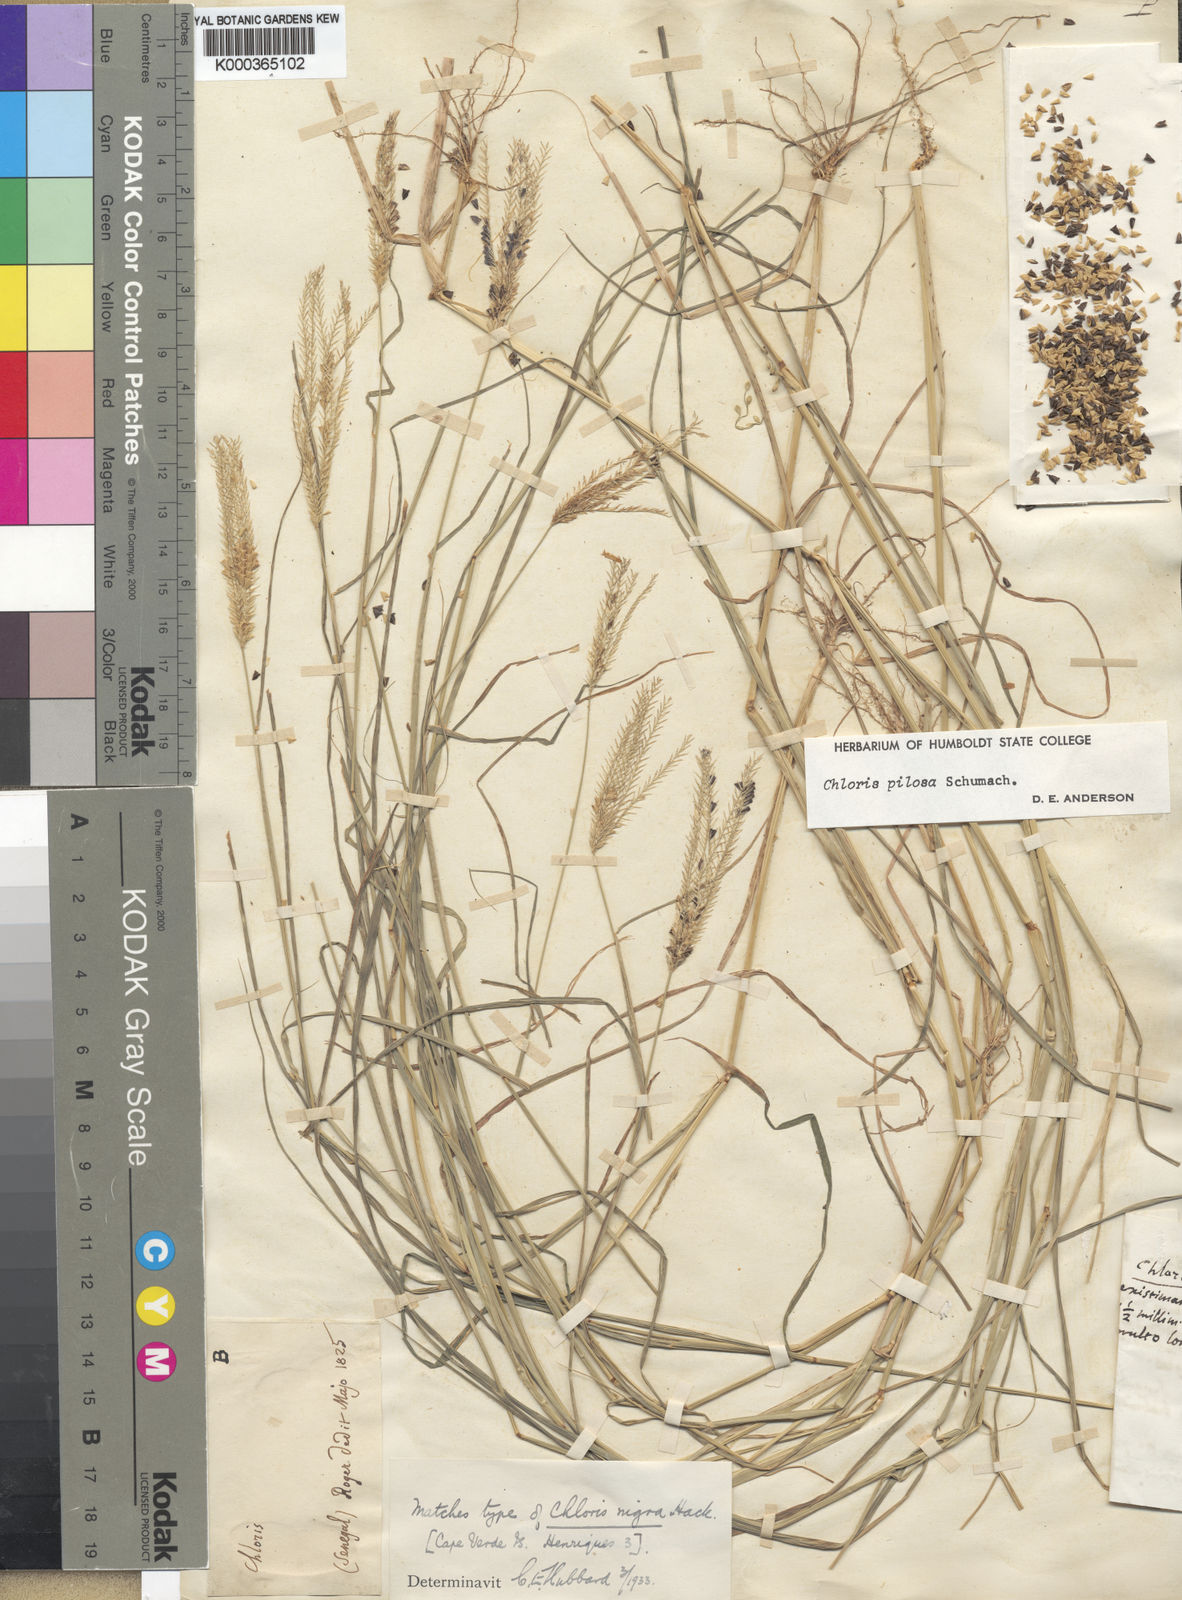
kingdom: Plantae
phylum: Tracheophyta
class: Liliopsida
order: Poales
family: Poaceae
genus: Chloris
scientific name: Chloris pilosa
